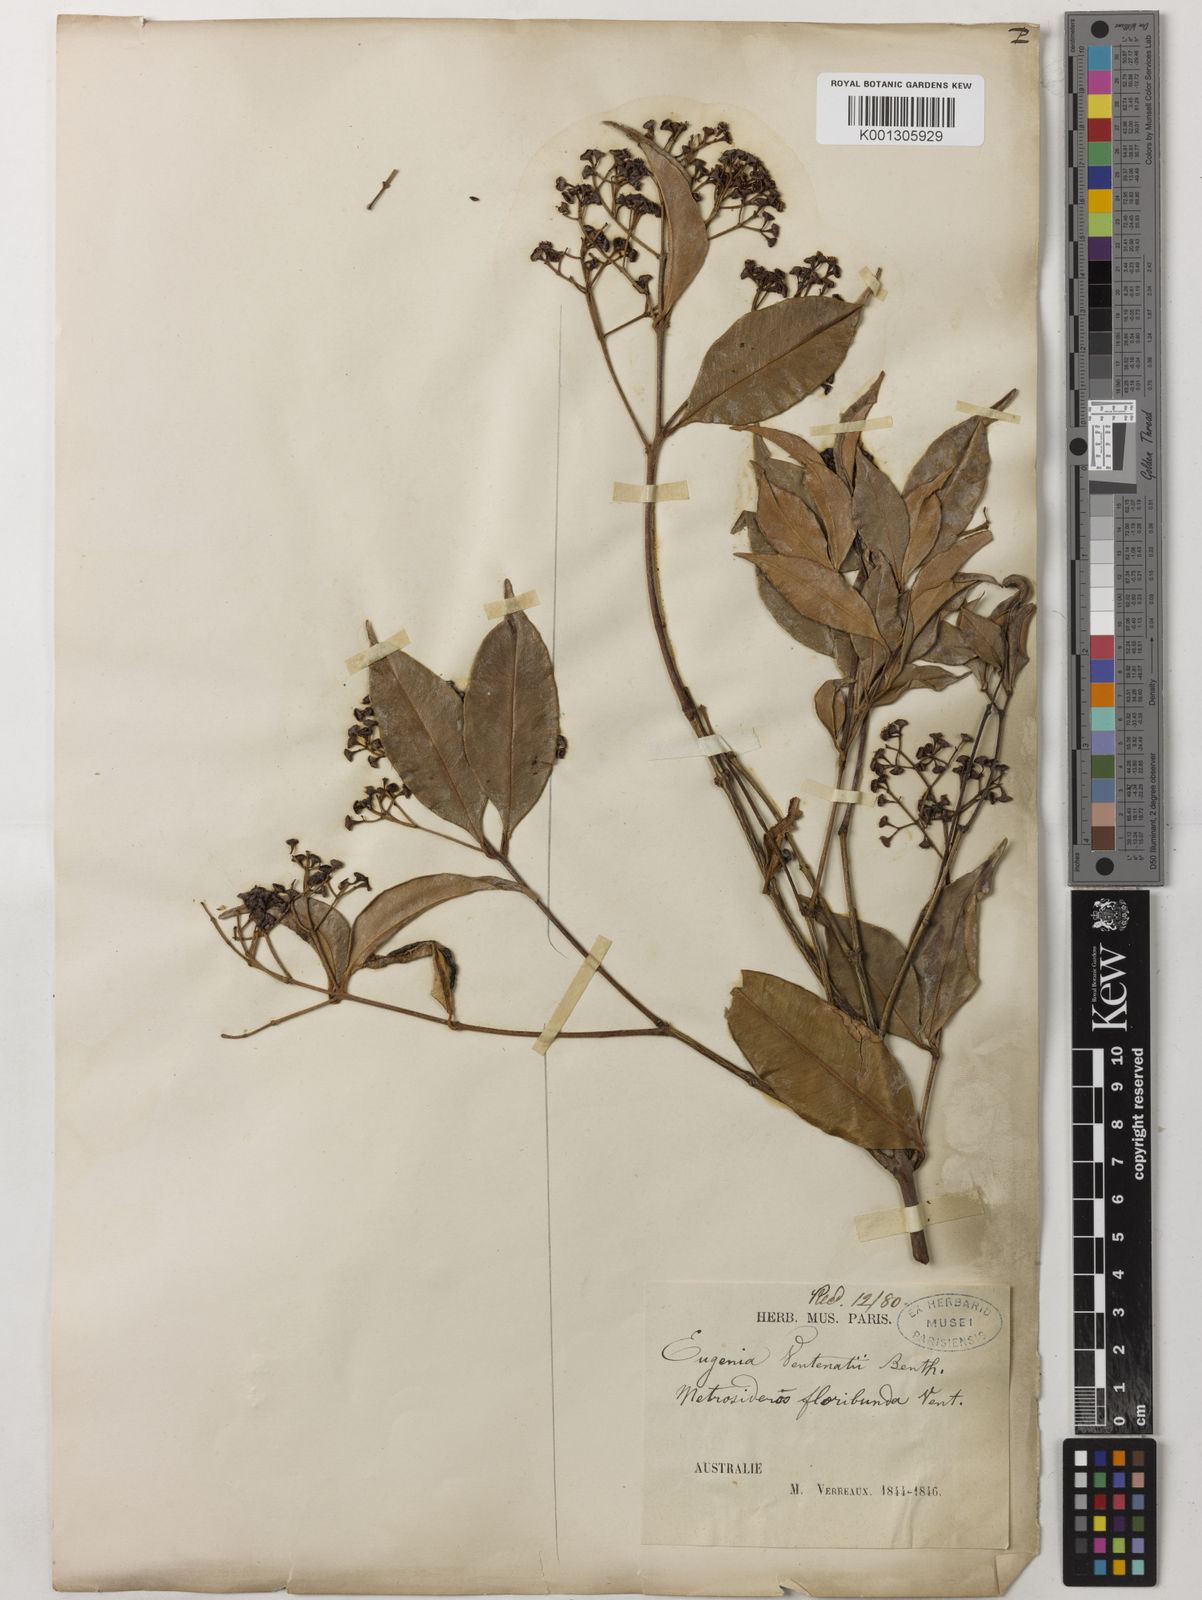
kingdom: Plantae
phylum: Tracheophyta
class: Magnoliopsida
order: Myrtales
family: Myrtaceae
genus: Syzygium
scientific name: Syzygium floribundum
